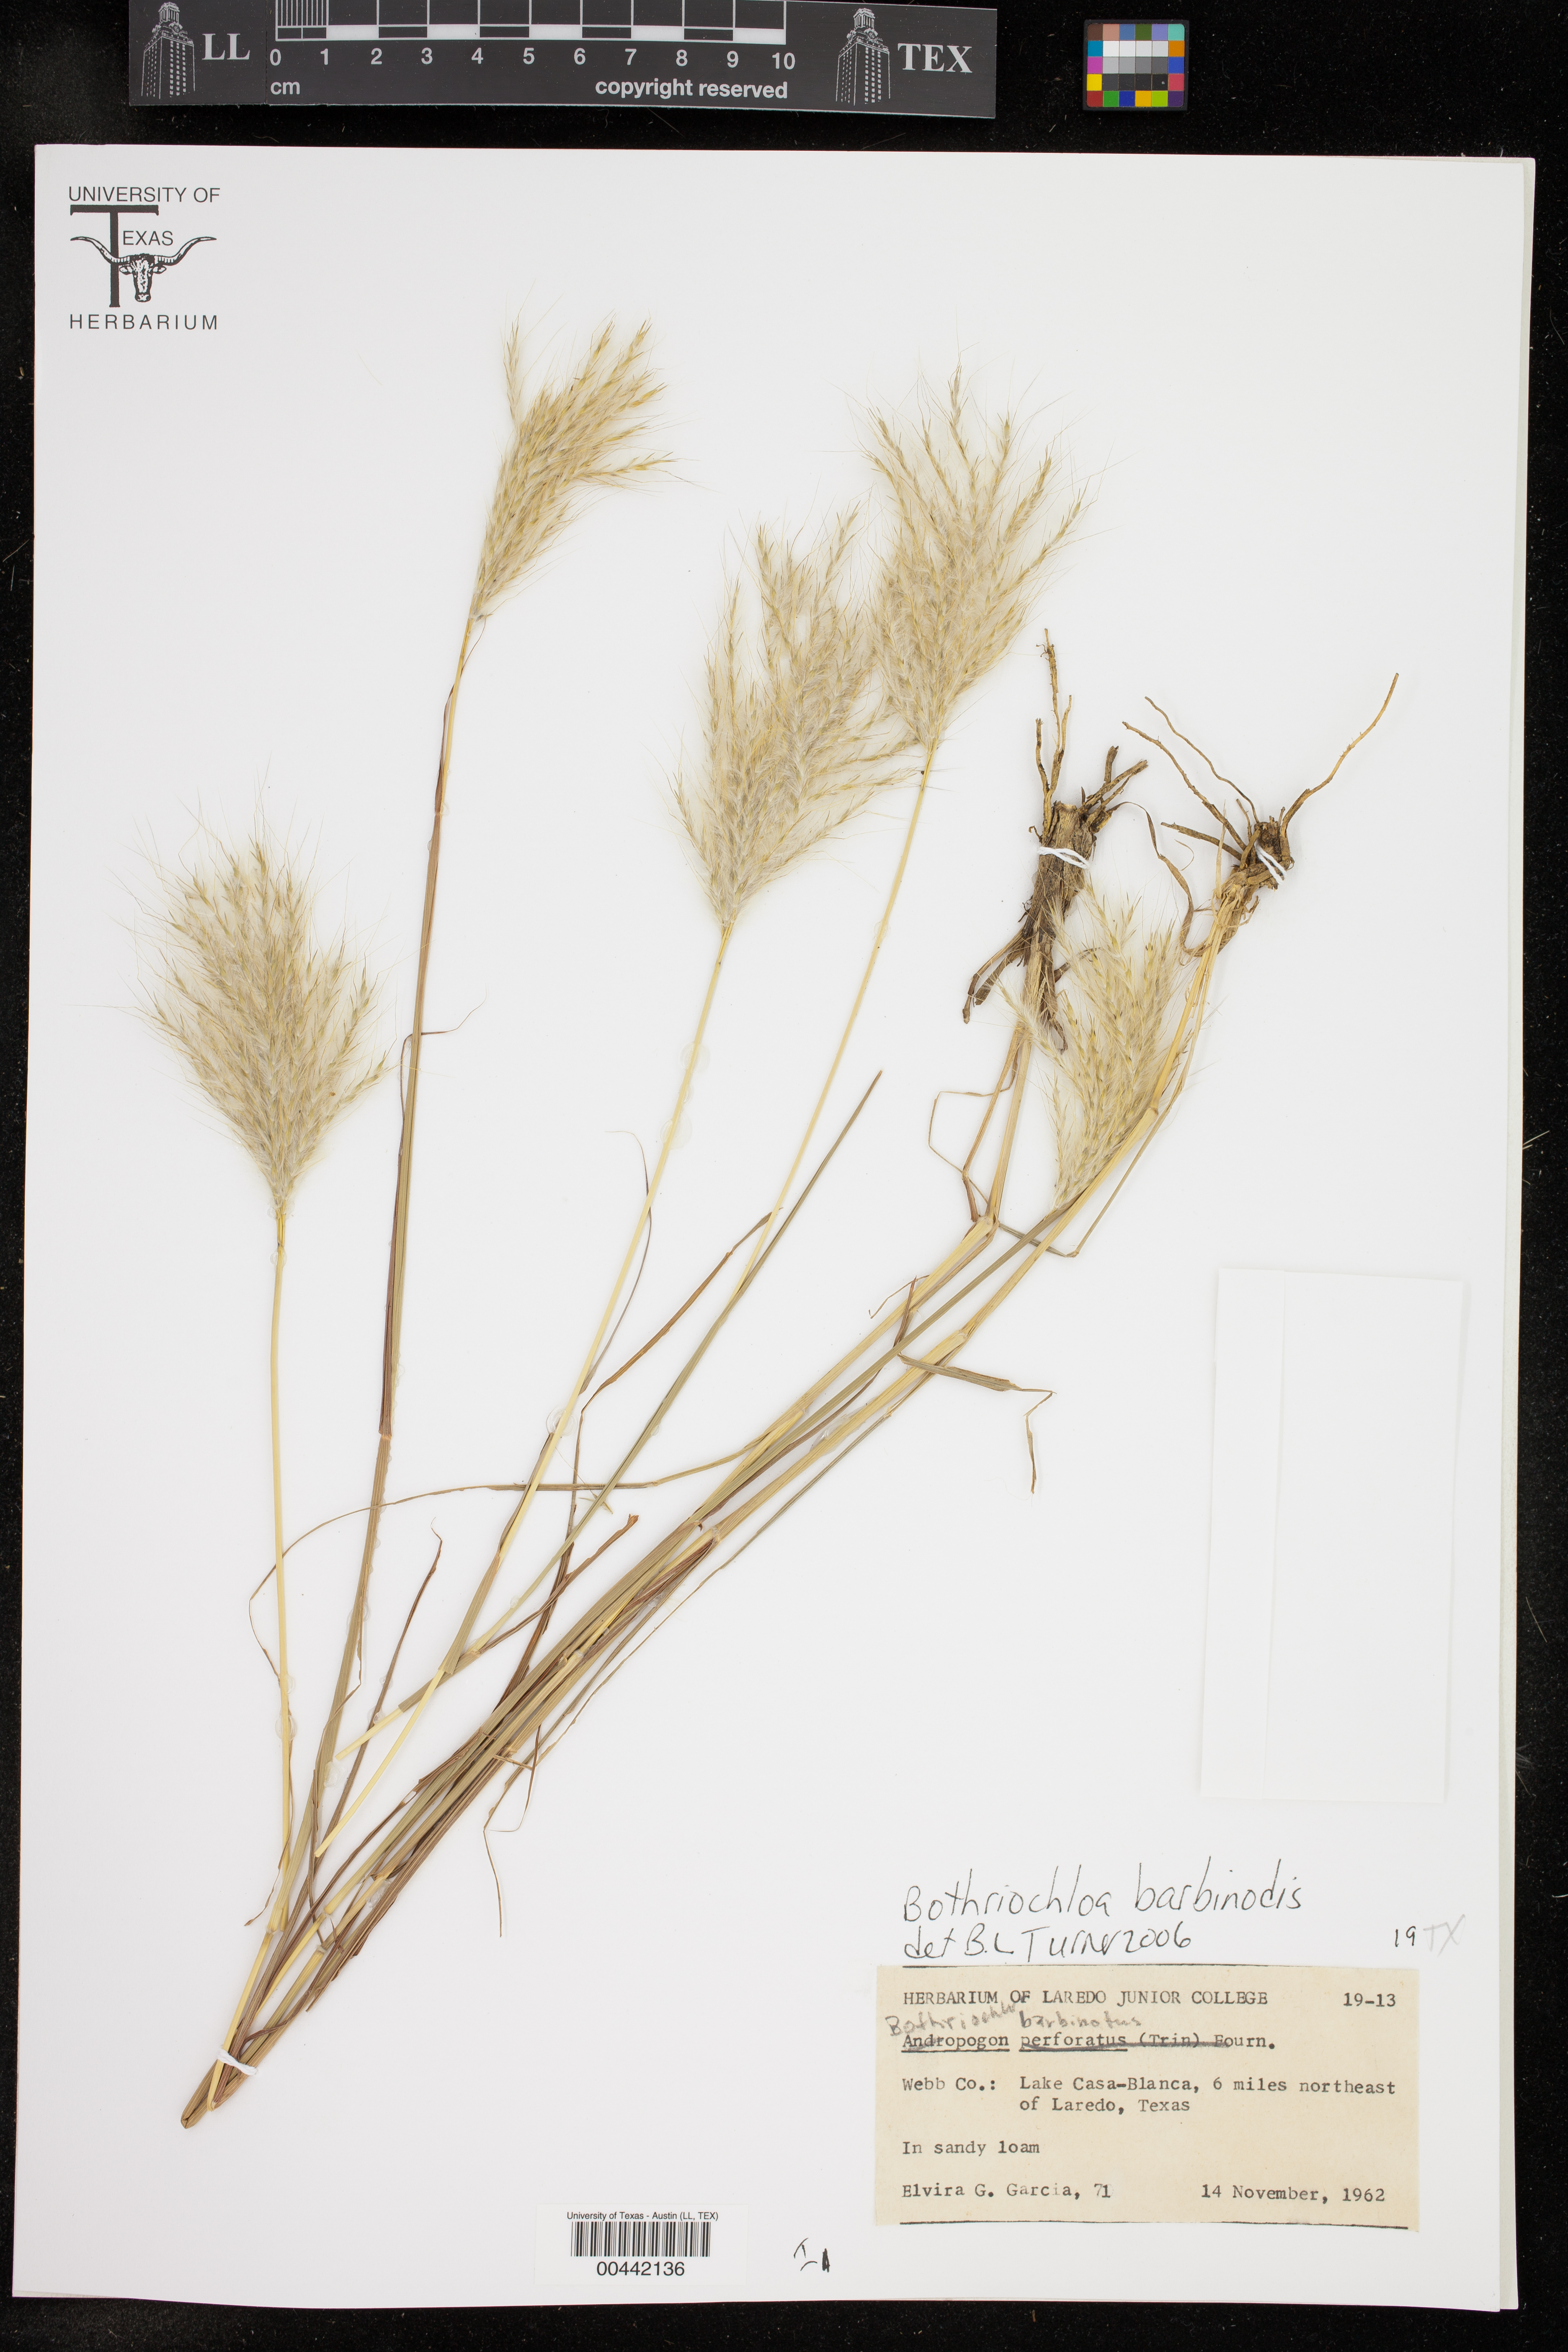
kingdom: Plantae
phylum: Tracheophyta
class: Liliopsida
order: Poales
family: Poaceae
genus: Bothriochloa
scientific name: Bothriochloa barbinodis
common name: Cane bluestem
